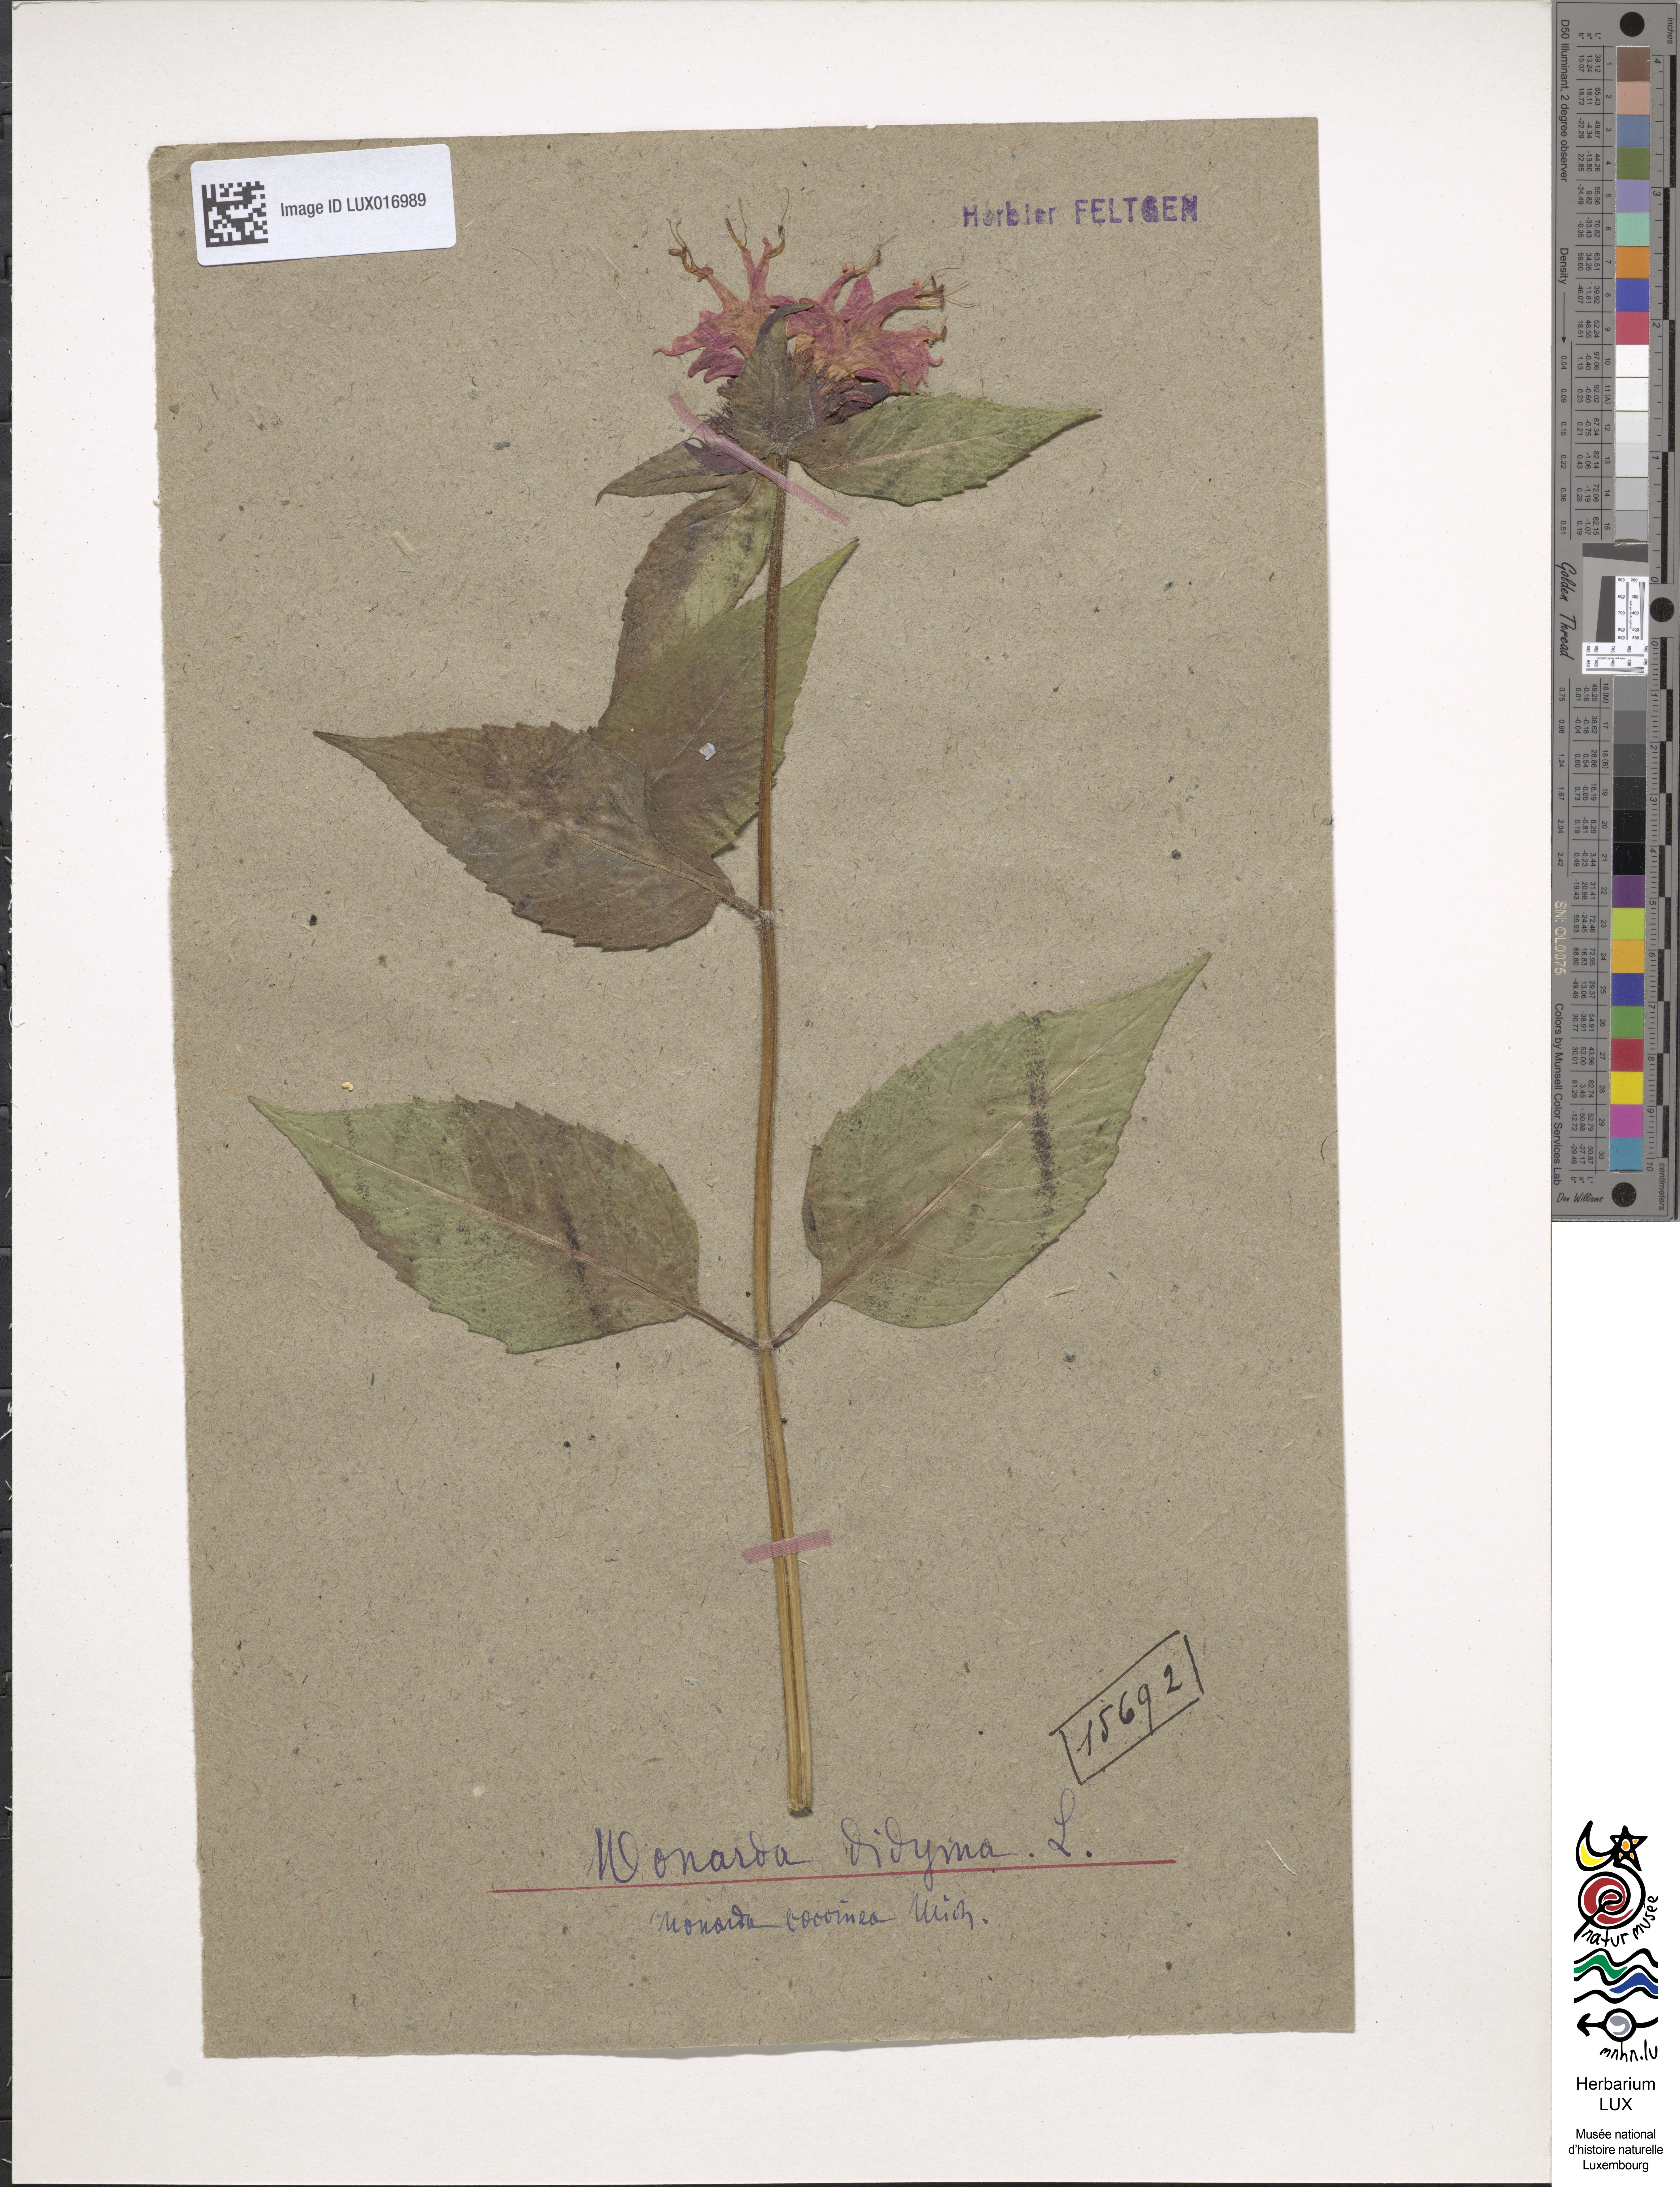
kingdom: Plantae
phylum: Tracheophyta
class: Magnoliopsida
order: Lamiales
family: Lamiaceae
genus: Monarda
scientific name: Monarda didyma
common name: Beebalm
